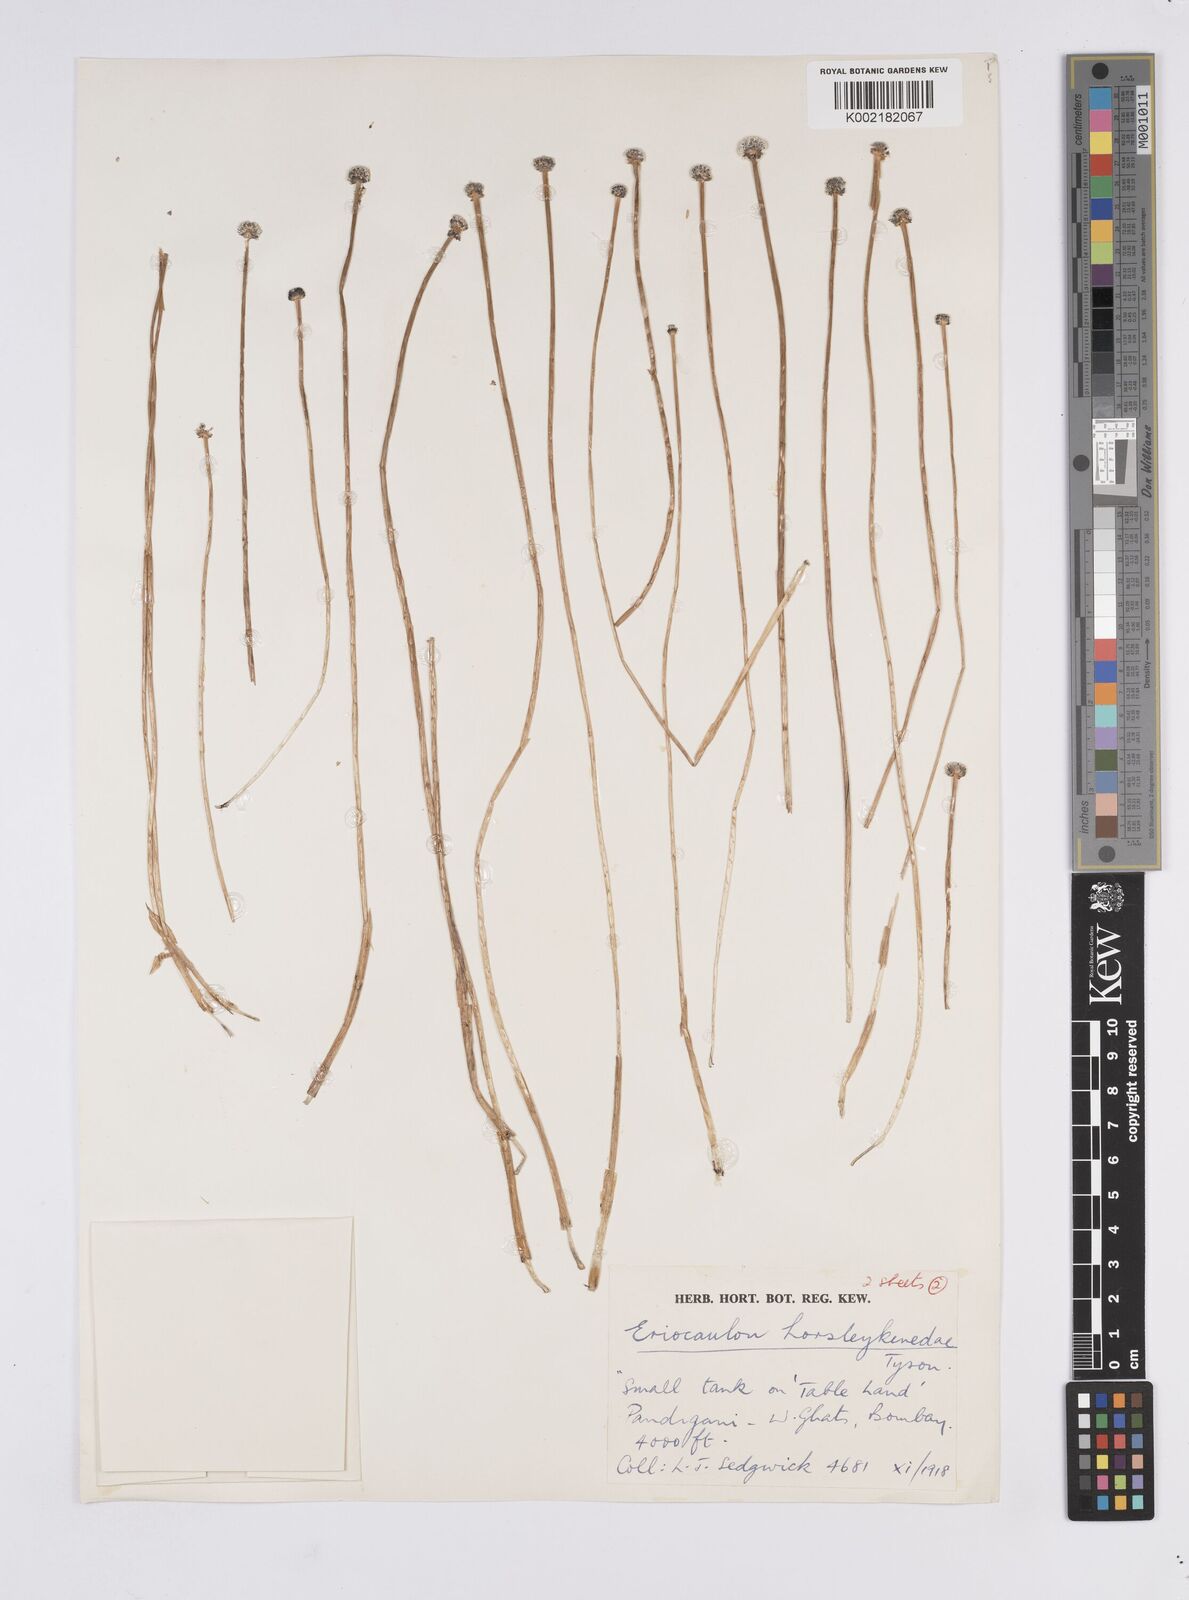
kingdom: Plantae
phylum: Tracheophyta
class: Liliopsida
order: Poales
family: Eriocaulaceae
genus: Eriocaulon
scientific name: Eriocaulon ritchieanum
